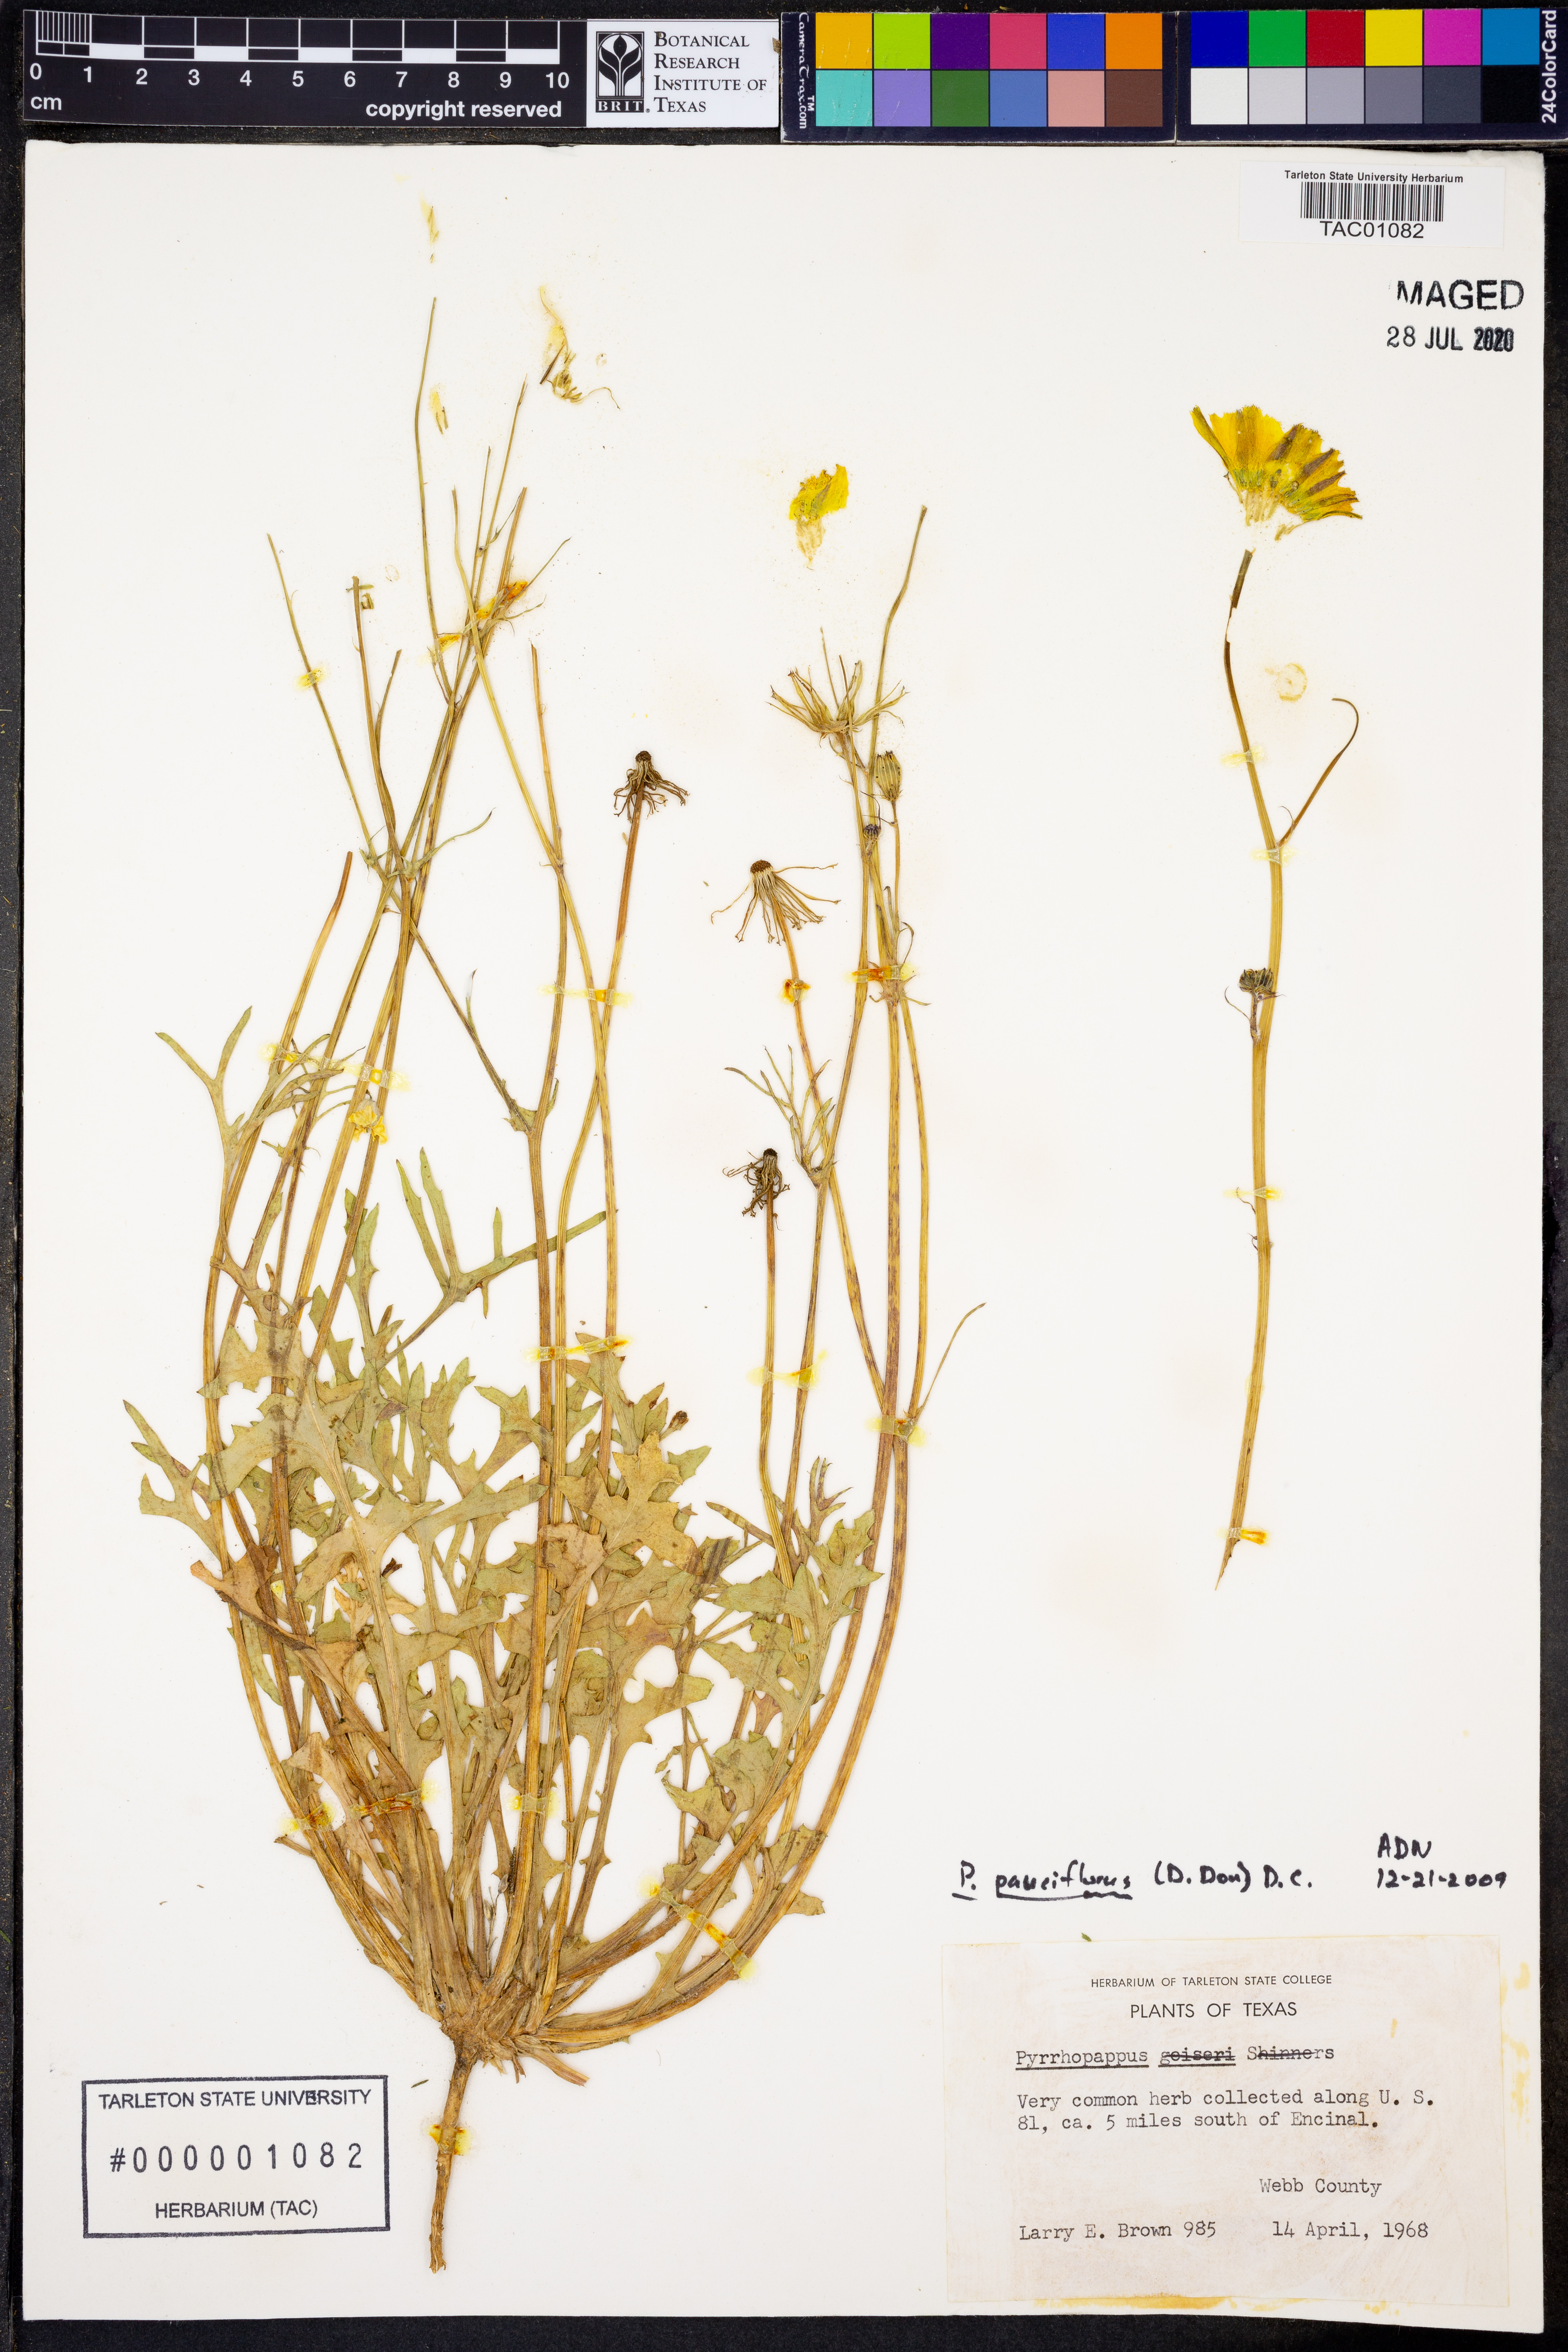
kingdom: Plantae
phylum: Tracheophyta
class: Magnoliopsida
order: Asterales
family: Asteraceae
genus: Pyrrhopappus
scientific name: Pyrrhopappus pauciflorus
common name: Texas false dandelion
